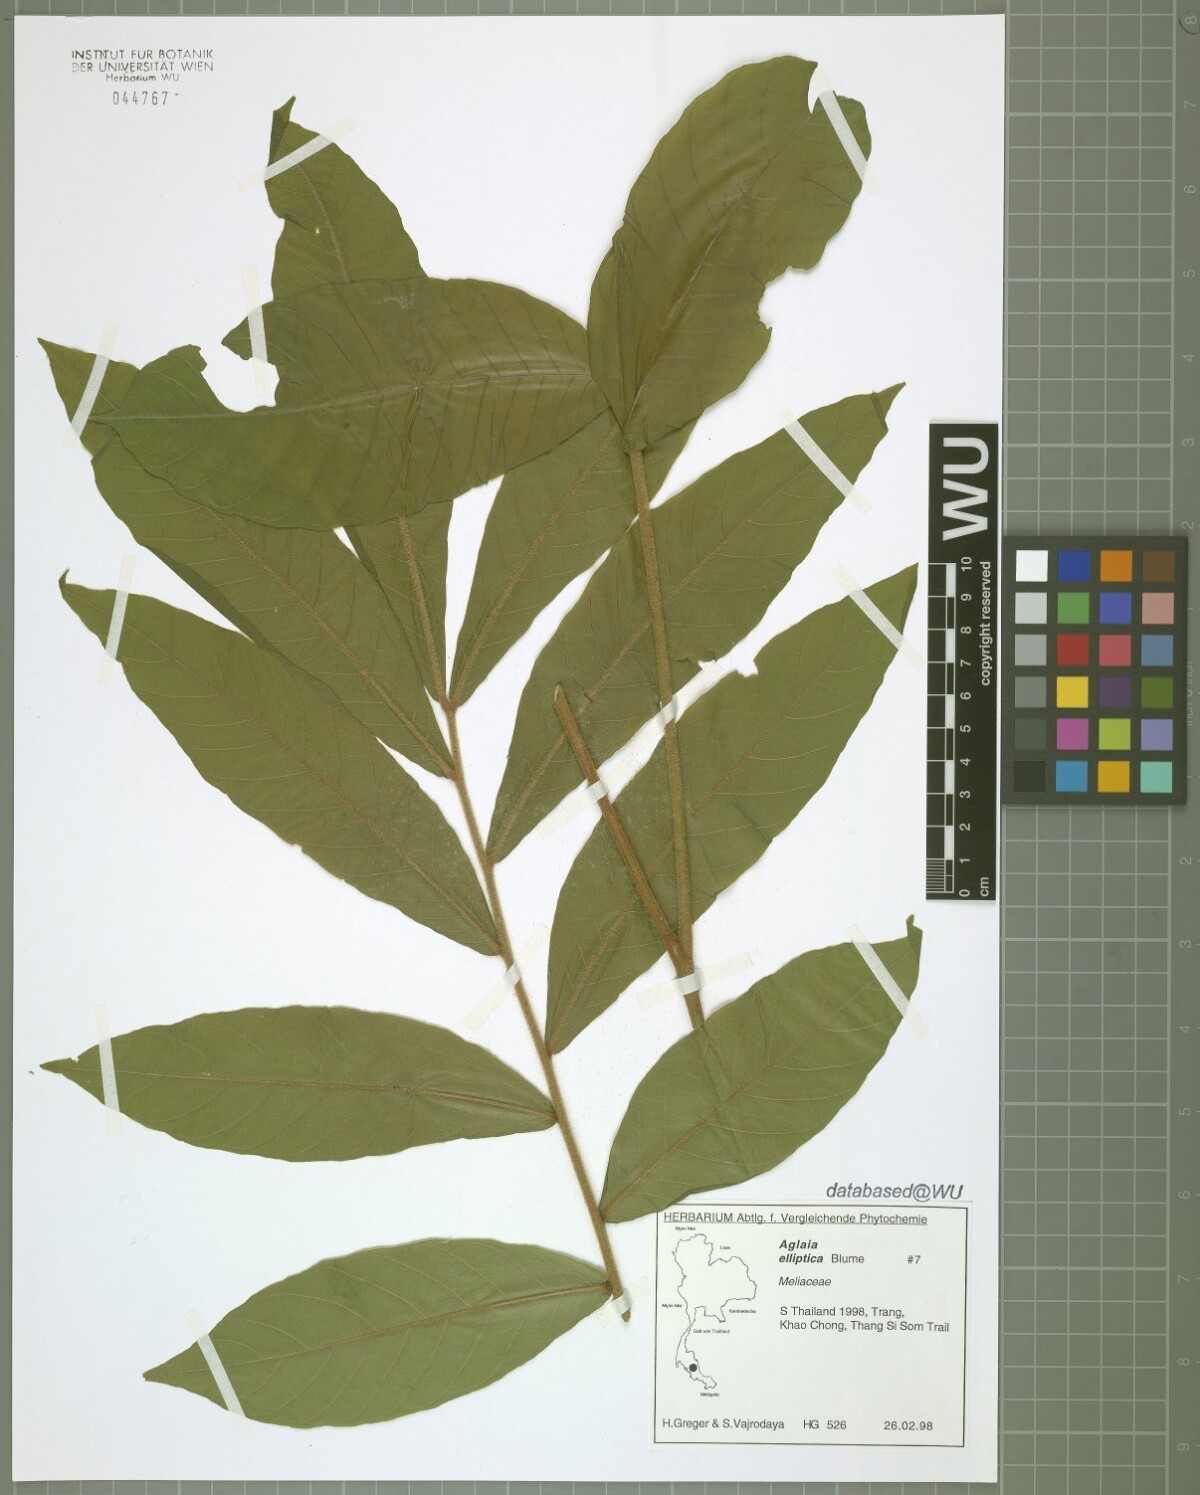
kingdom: Plantae
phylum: Tracheophyta
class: Magnoliopsida
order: Sapindales
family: Meliaceae
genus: Aglaia
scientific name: Aglaia elliptica
